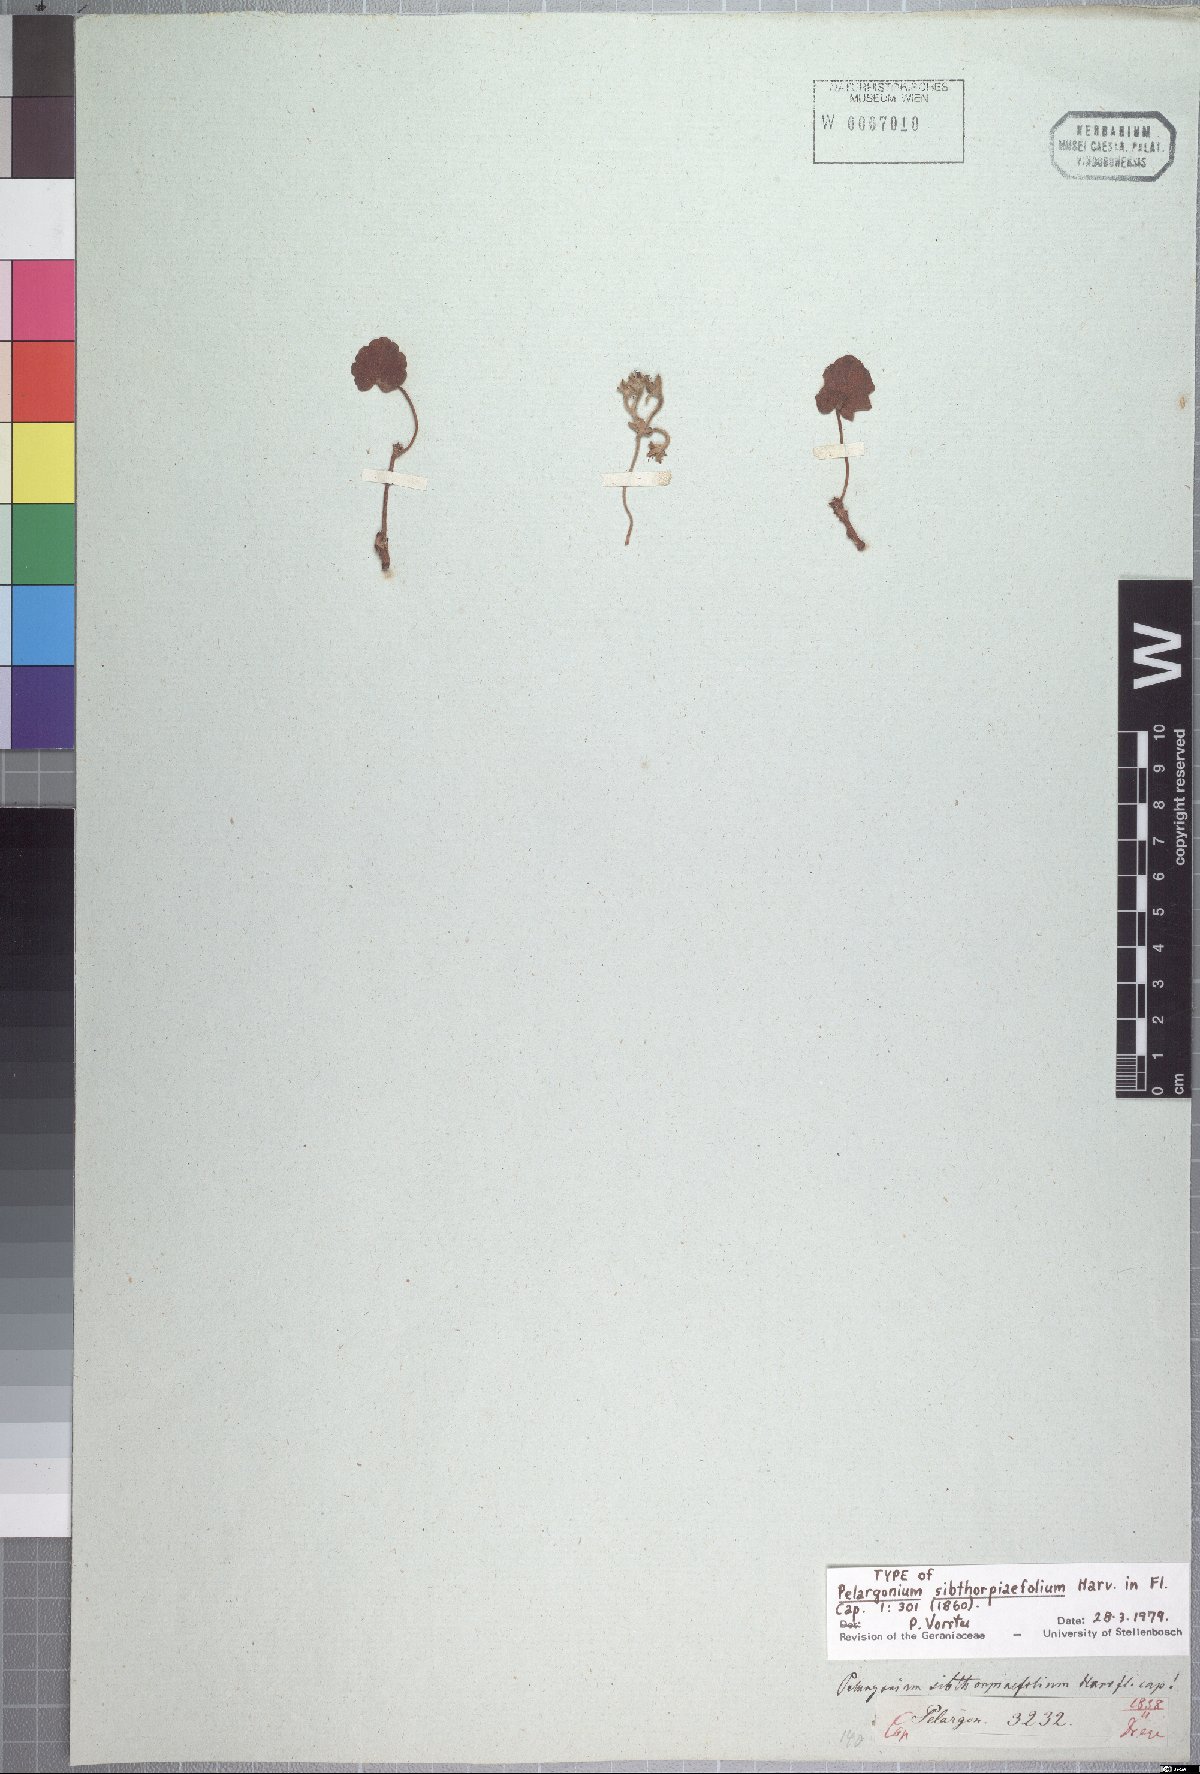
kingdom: Plantae
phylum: Tracheophyta
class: Magnoliopsida
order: Geraniales
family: Geraniaceae
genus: Pelargonium
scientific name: Pelargonium sibthorpiifolium
